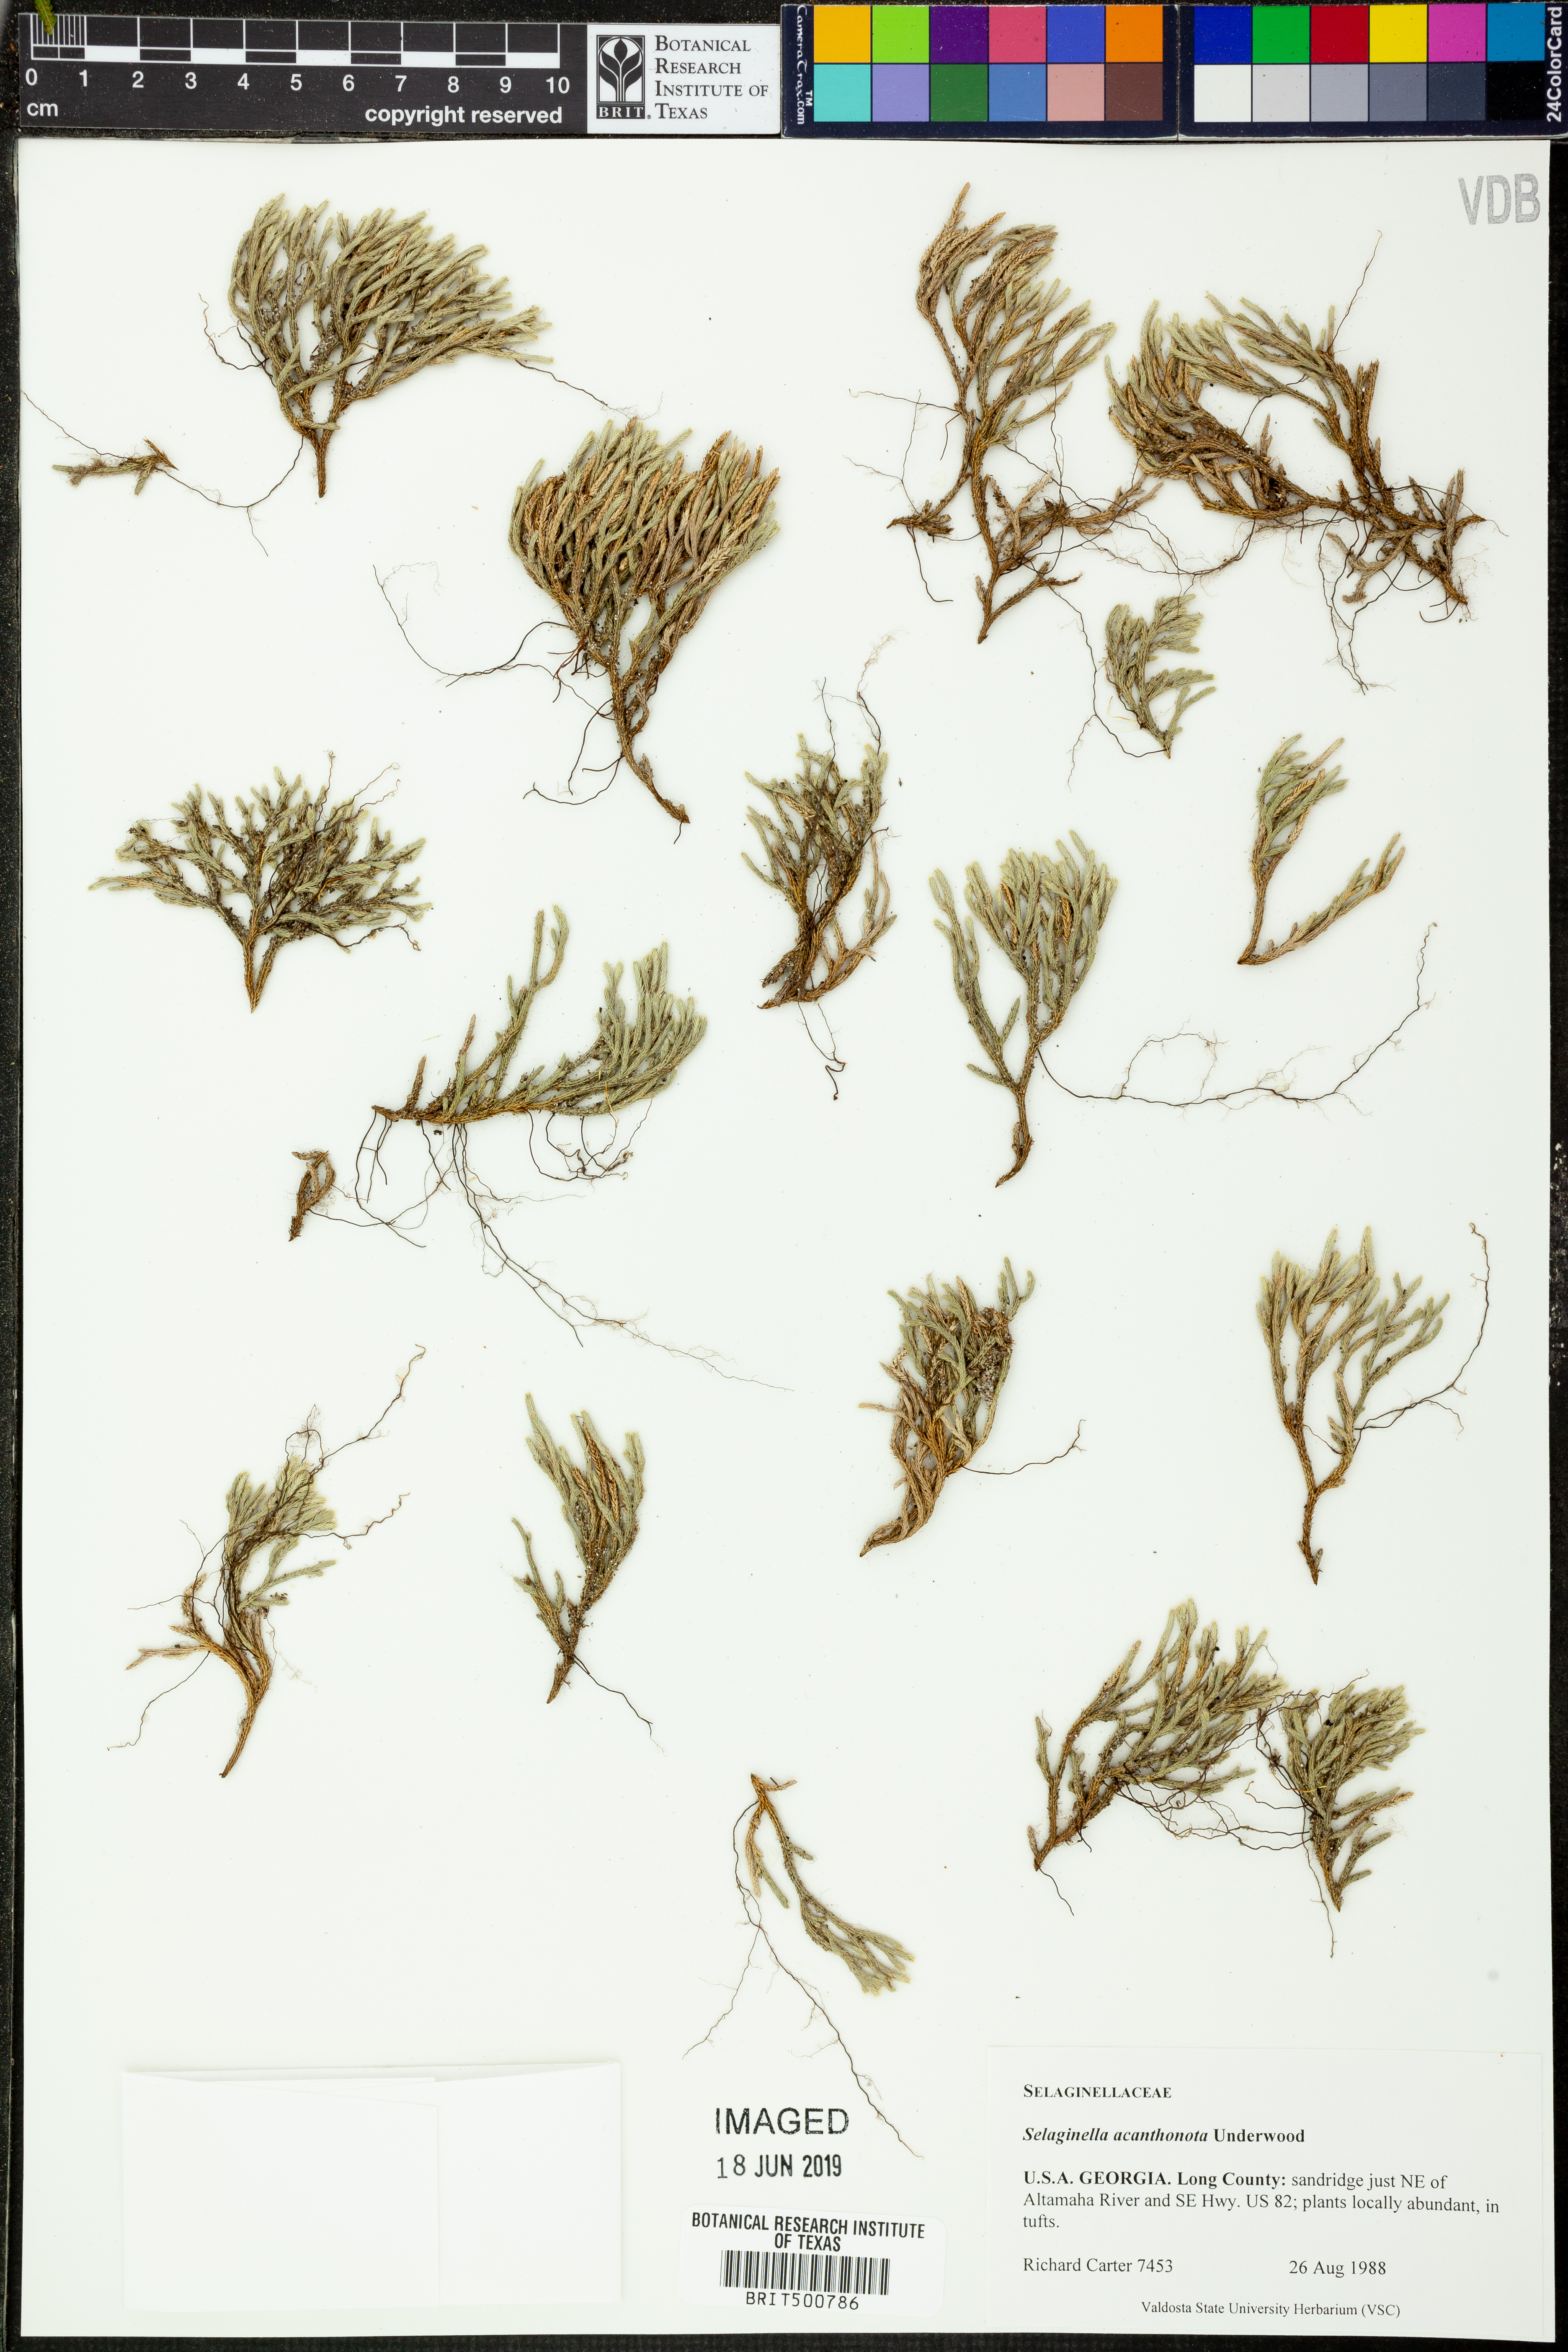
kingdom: Plantae
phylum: Tracheophyta
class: Lycopodiopsida
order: Selaginellales
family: Selaginellaceae
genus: Selaginella
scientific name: Selaginella acanthonota
